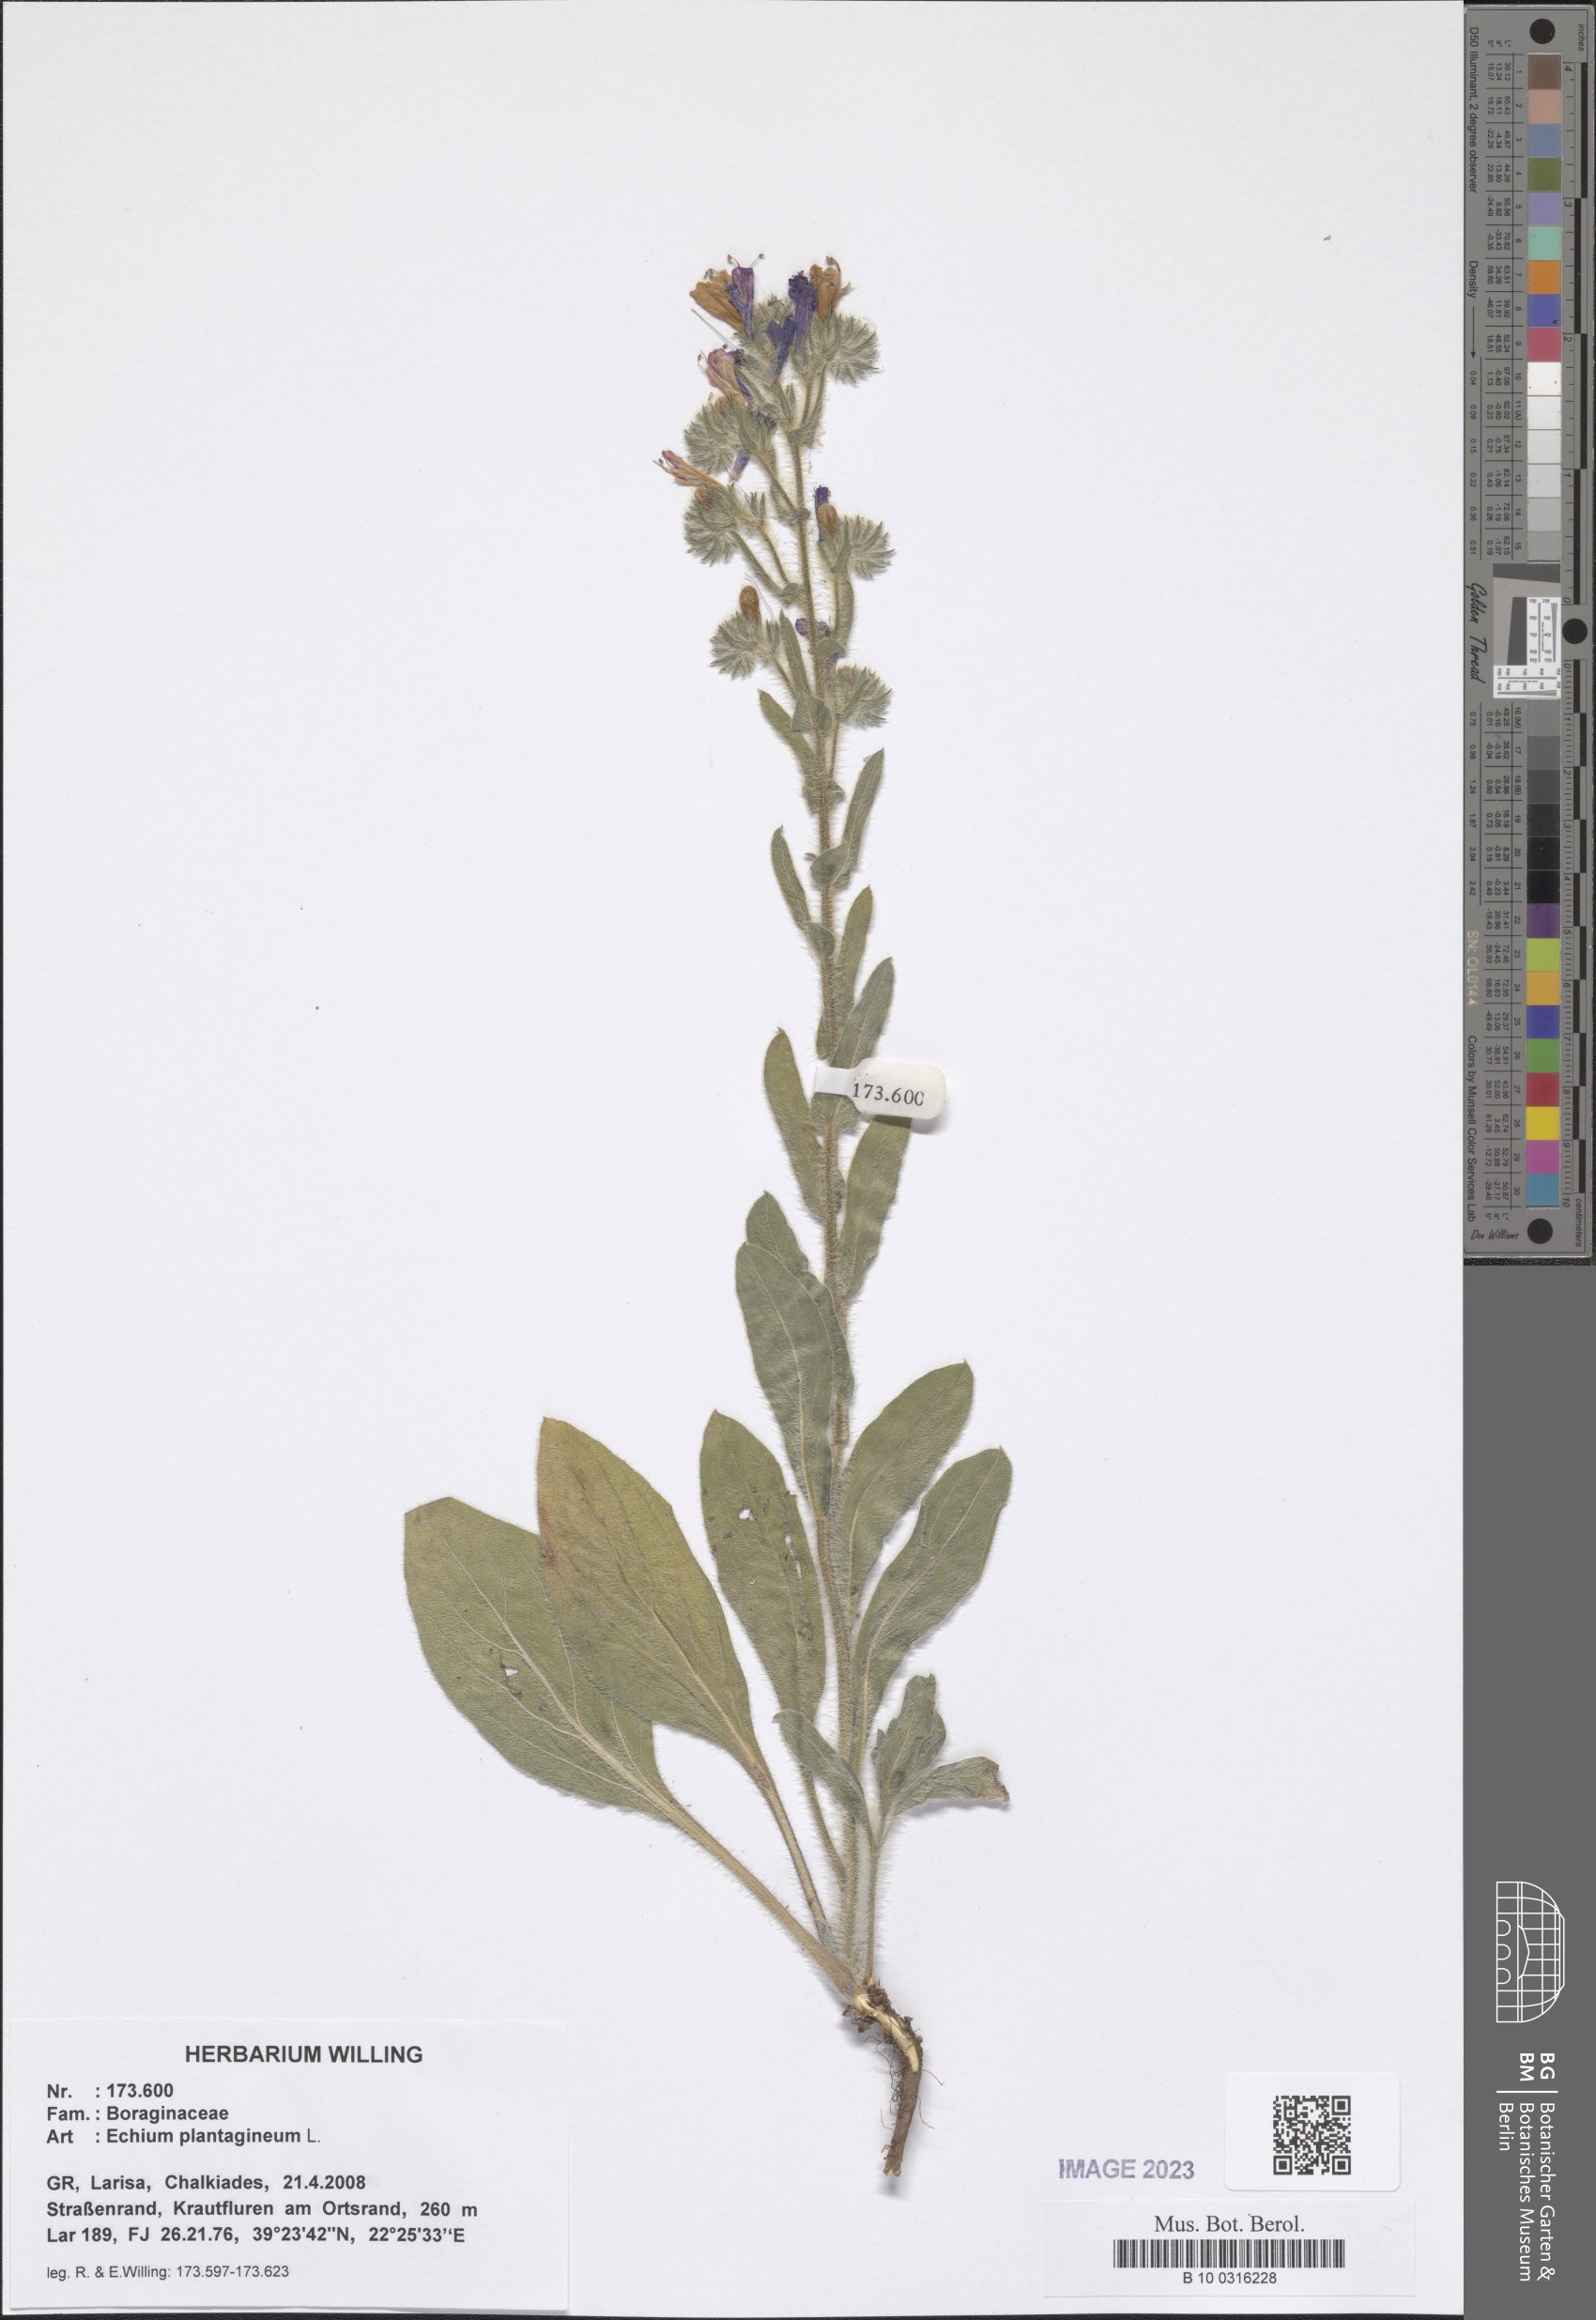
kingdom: Plantae
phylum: Tracheophyta
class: Magnoliopsida
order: Boraginales
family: Boraginaceae
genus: Echium
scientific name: Echium plantagineum
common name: Purple viper's-bugloss
